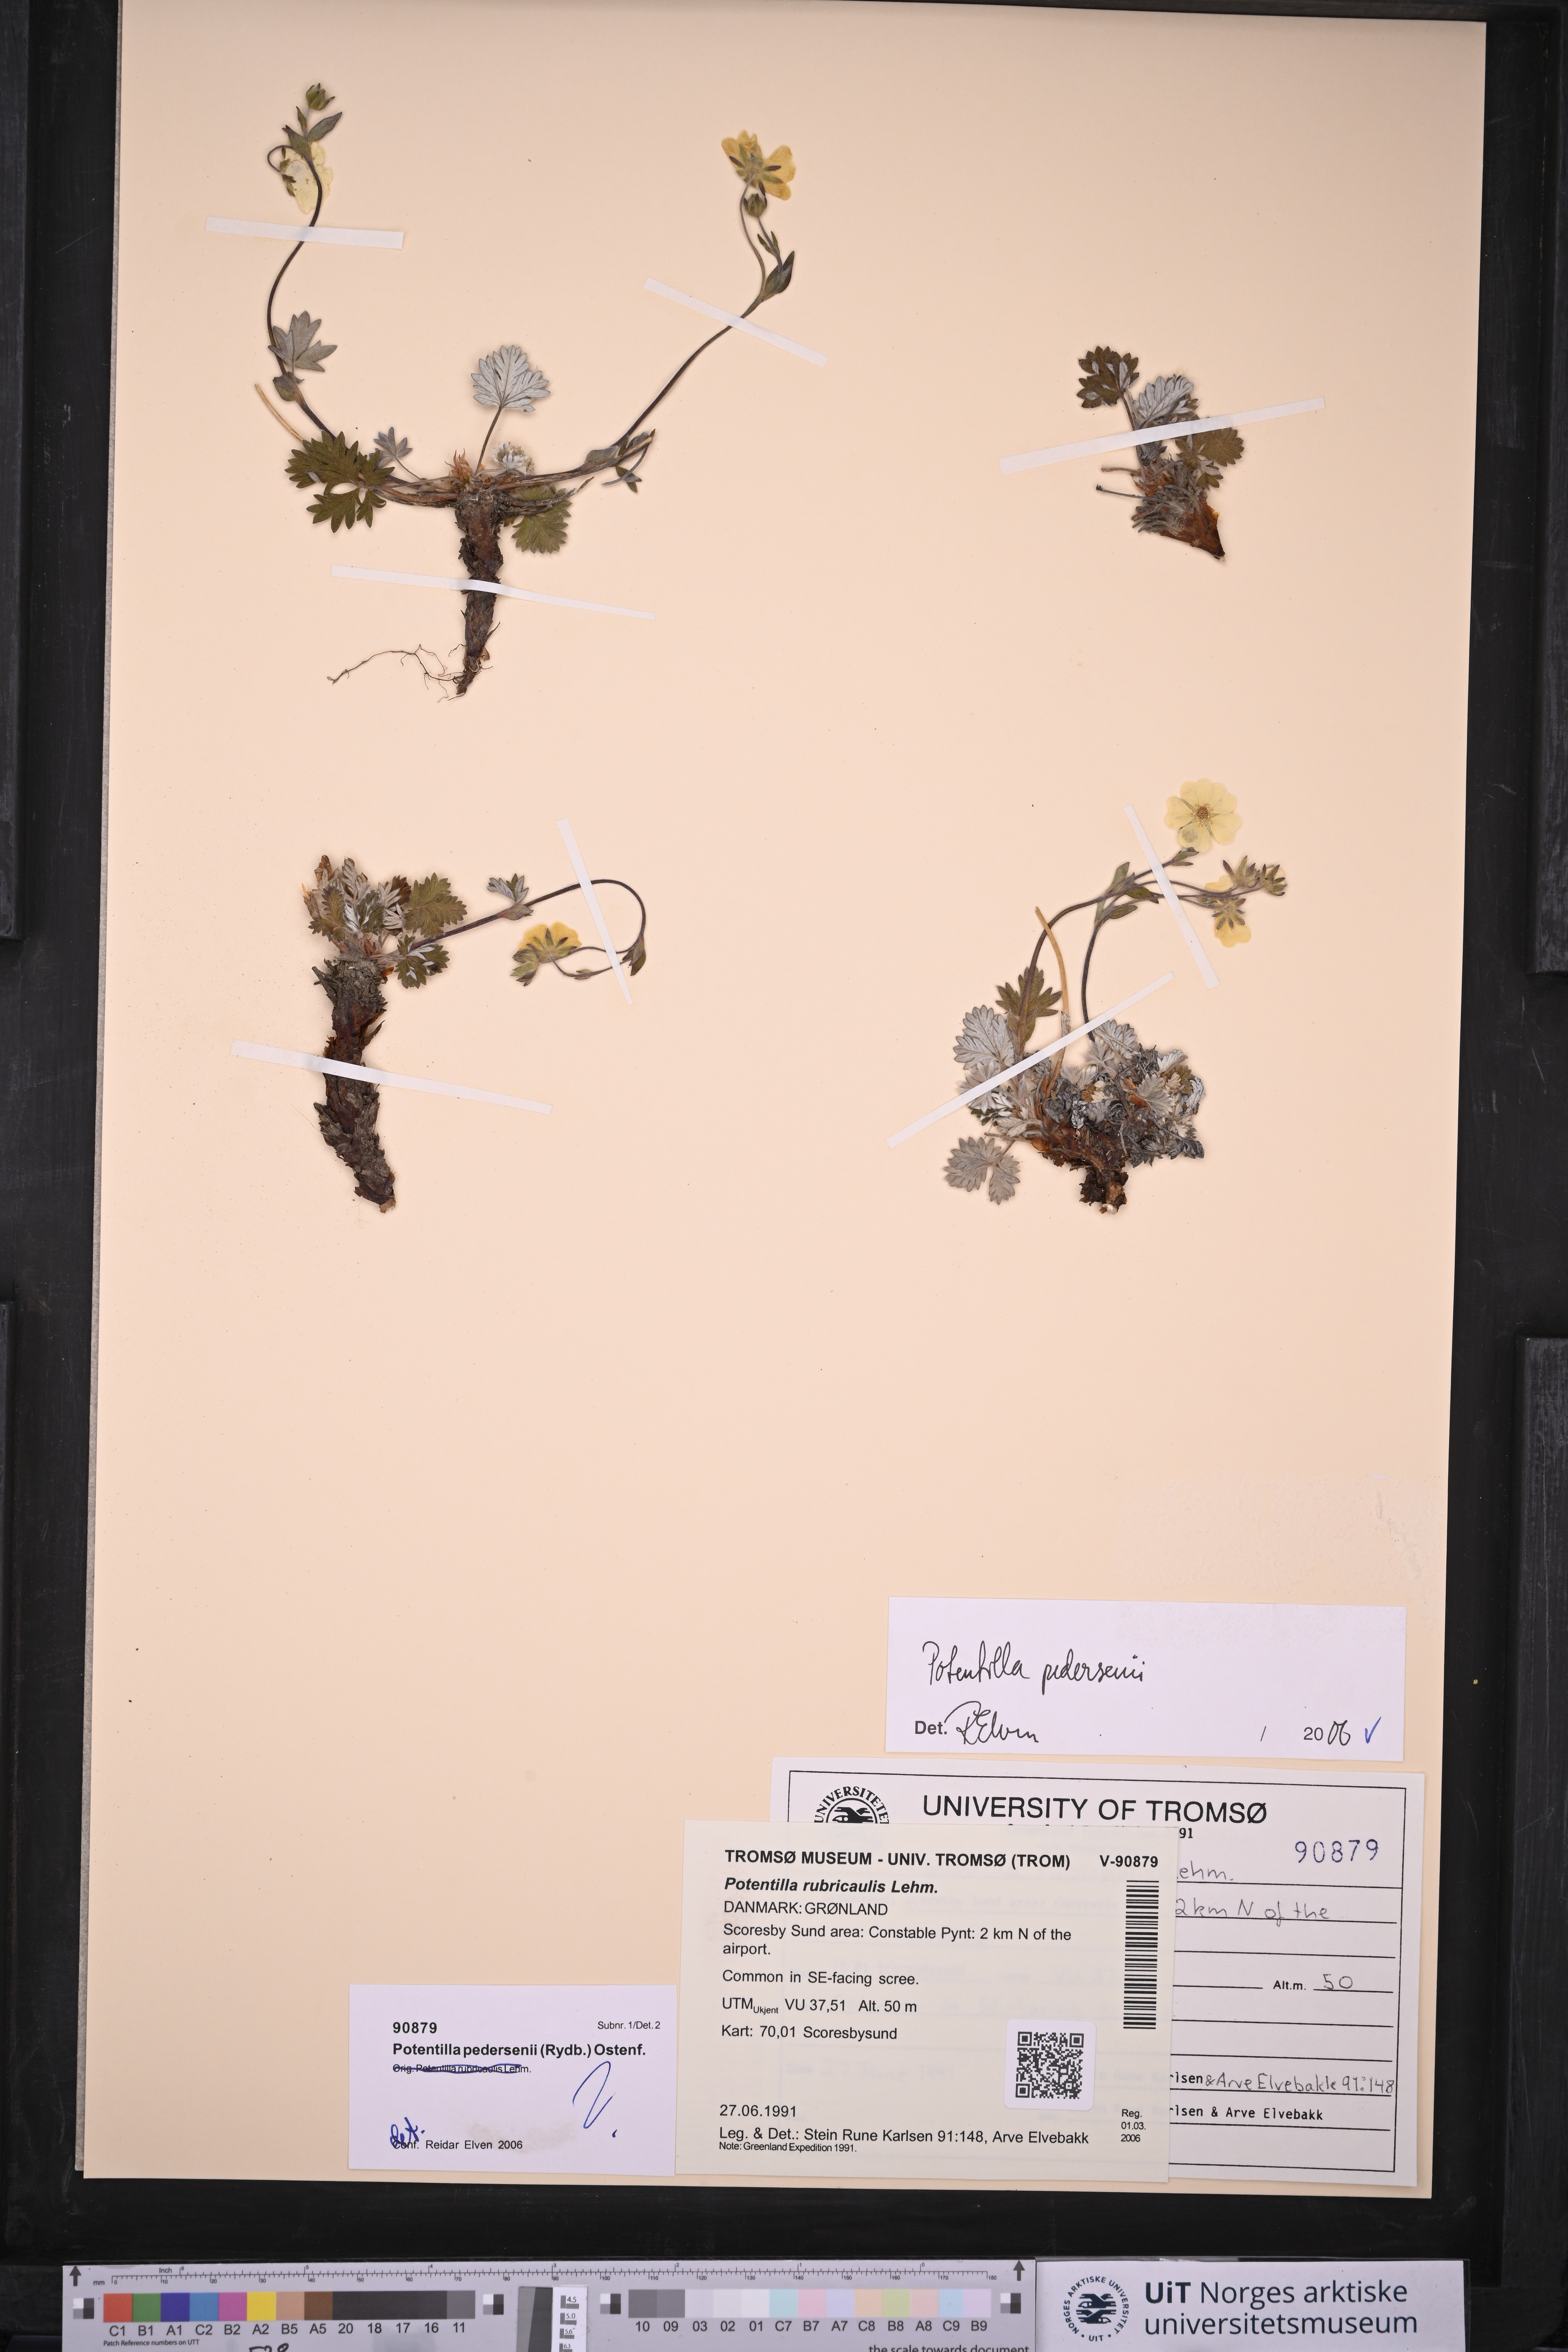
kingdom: Plantae
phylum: Tracheophyta
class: Magnoliopsida
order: Rosales
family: Rosaceae
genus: Potentilla
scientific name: Potentilla pedersenii
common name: Pedersen's cinquefoil
